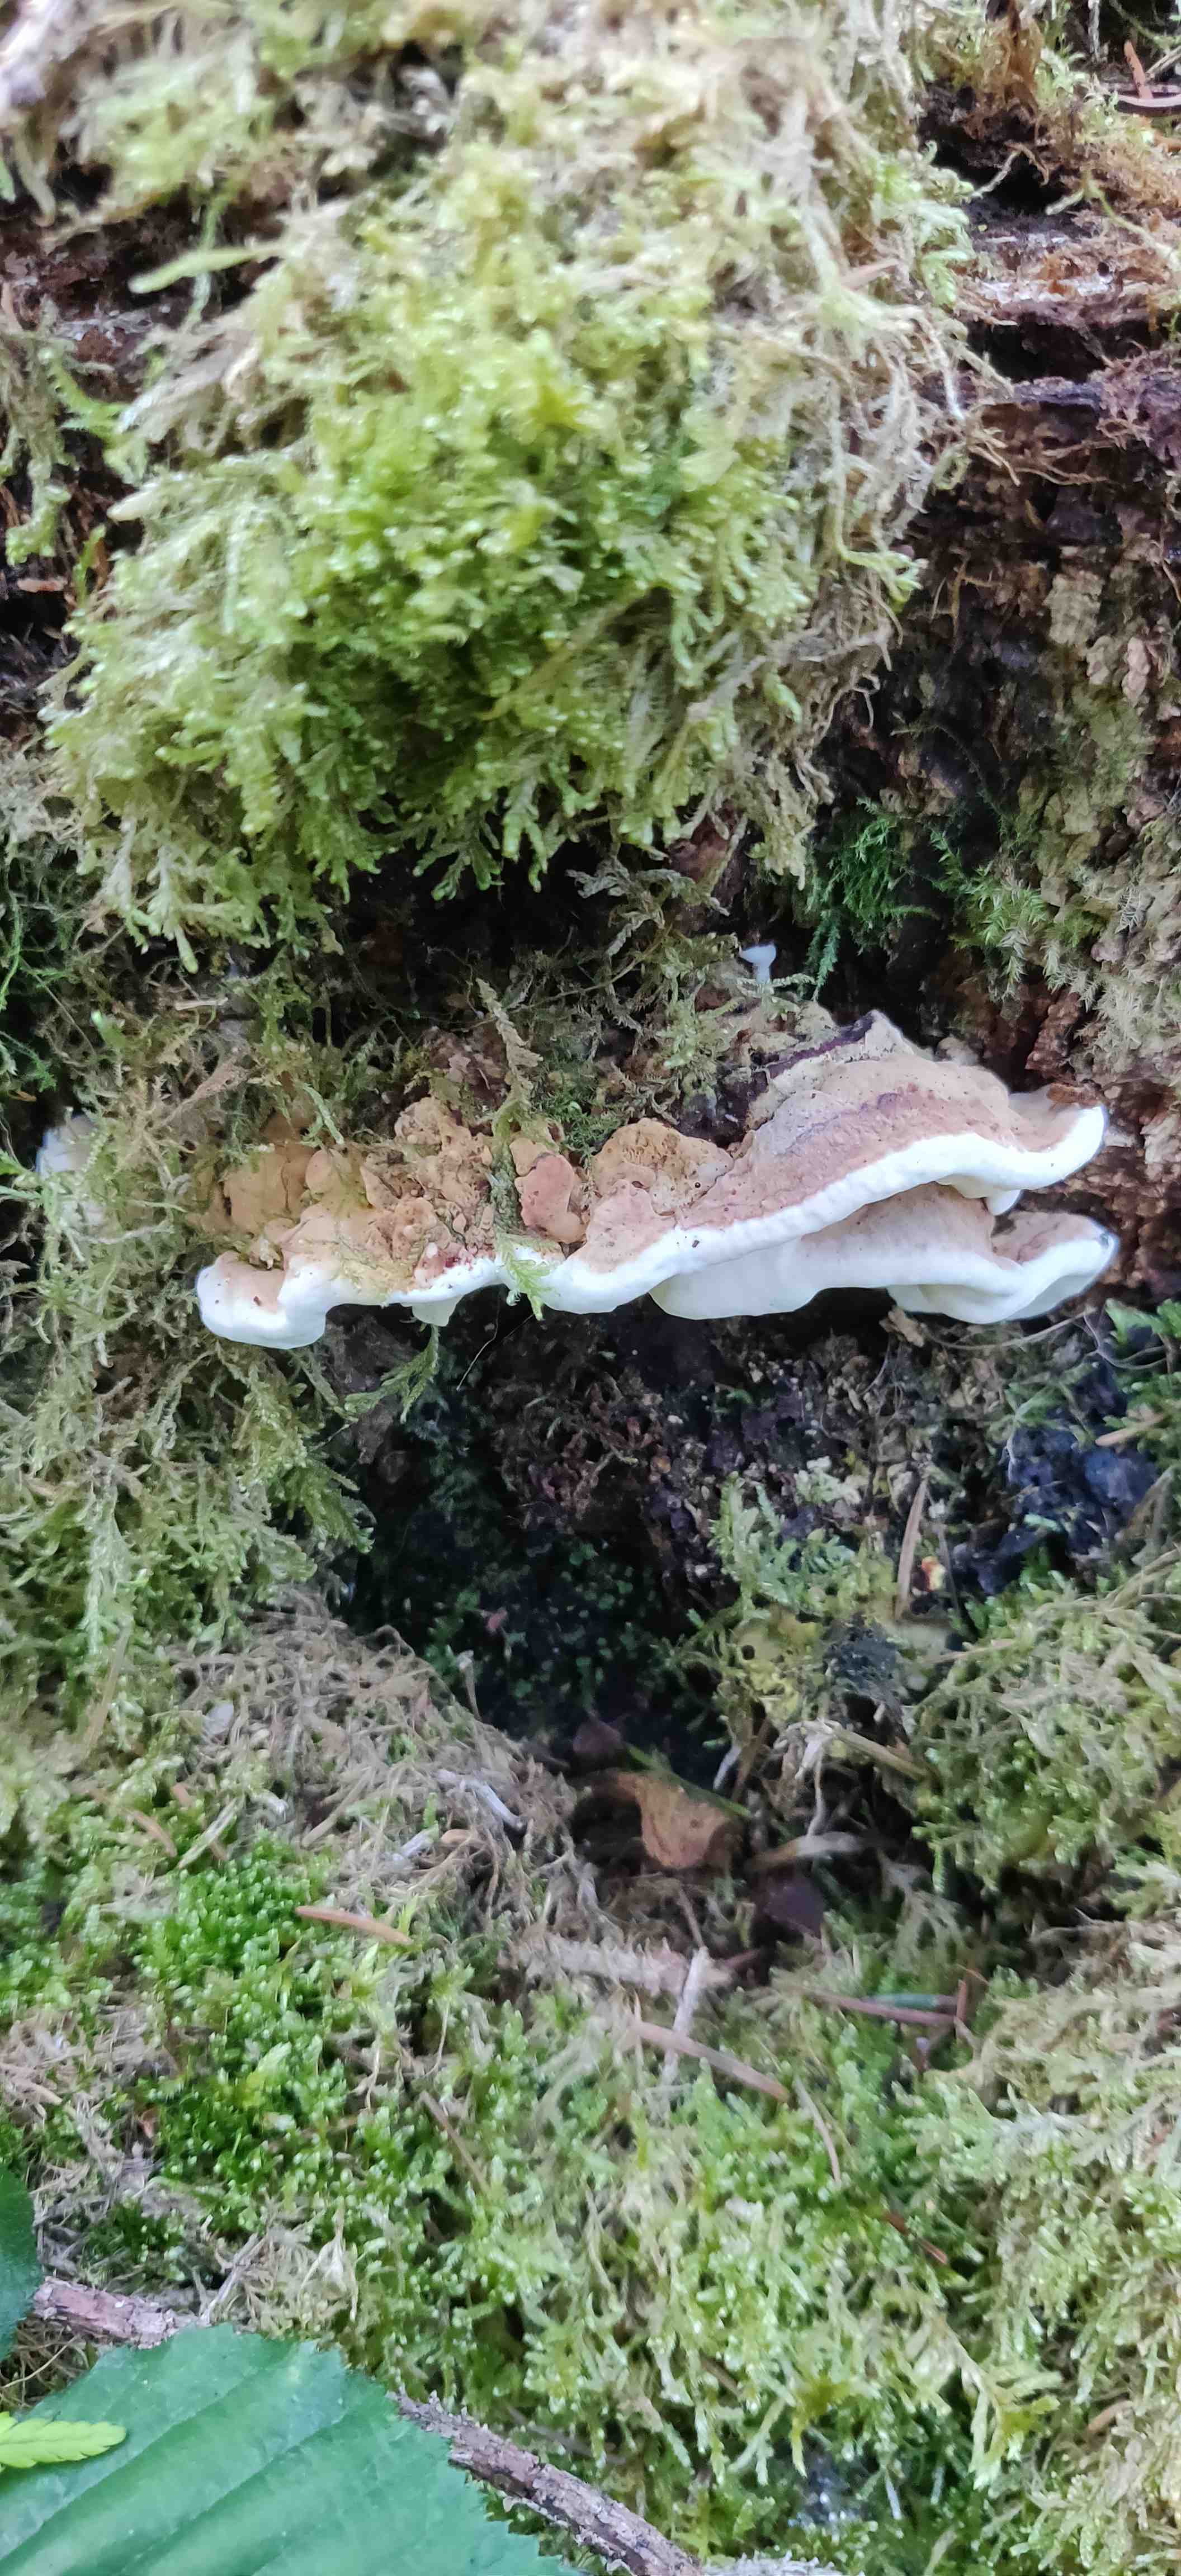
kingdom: Fungi
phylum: Basidiomycota
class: Agaricomycetes
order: Russulales
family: Bondarzewiaceae
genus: Heterobasidion
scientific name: Heterobasidion annosum
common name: almindelig rodfordærver
